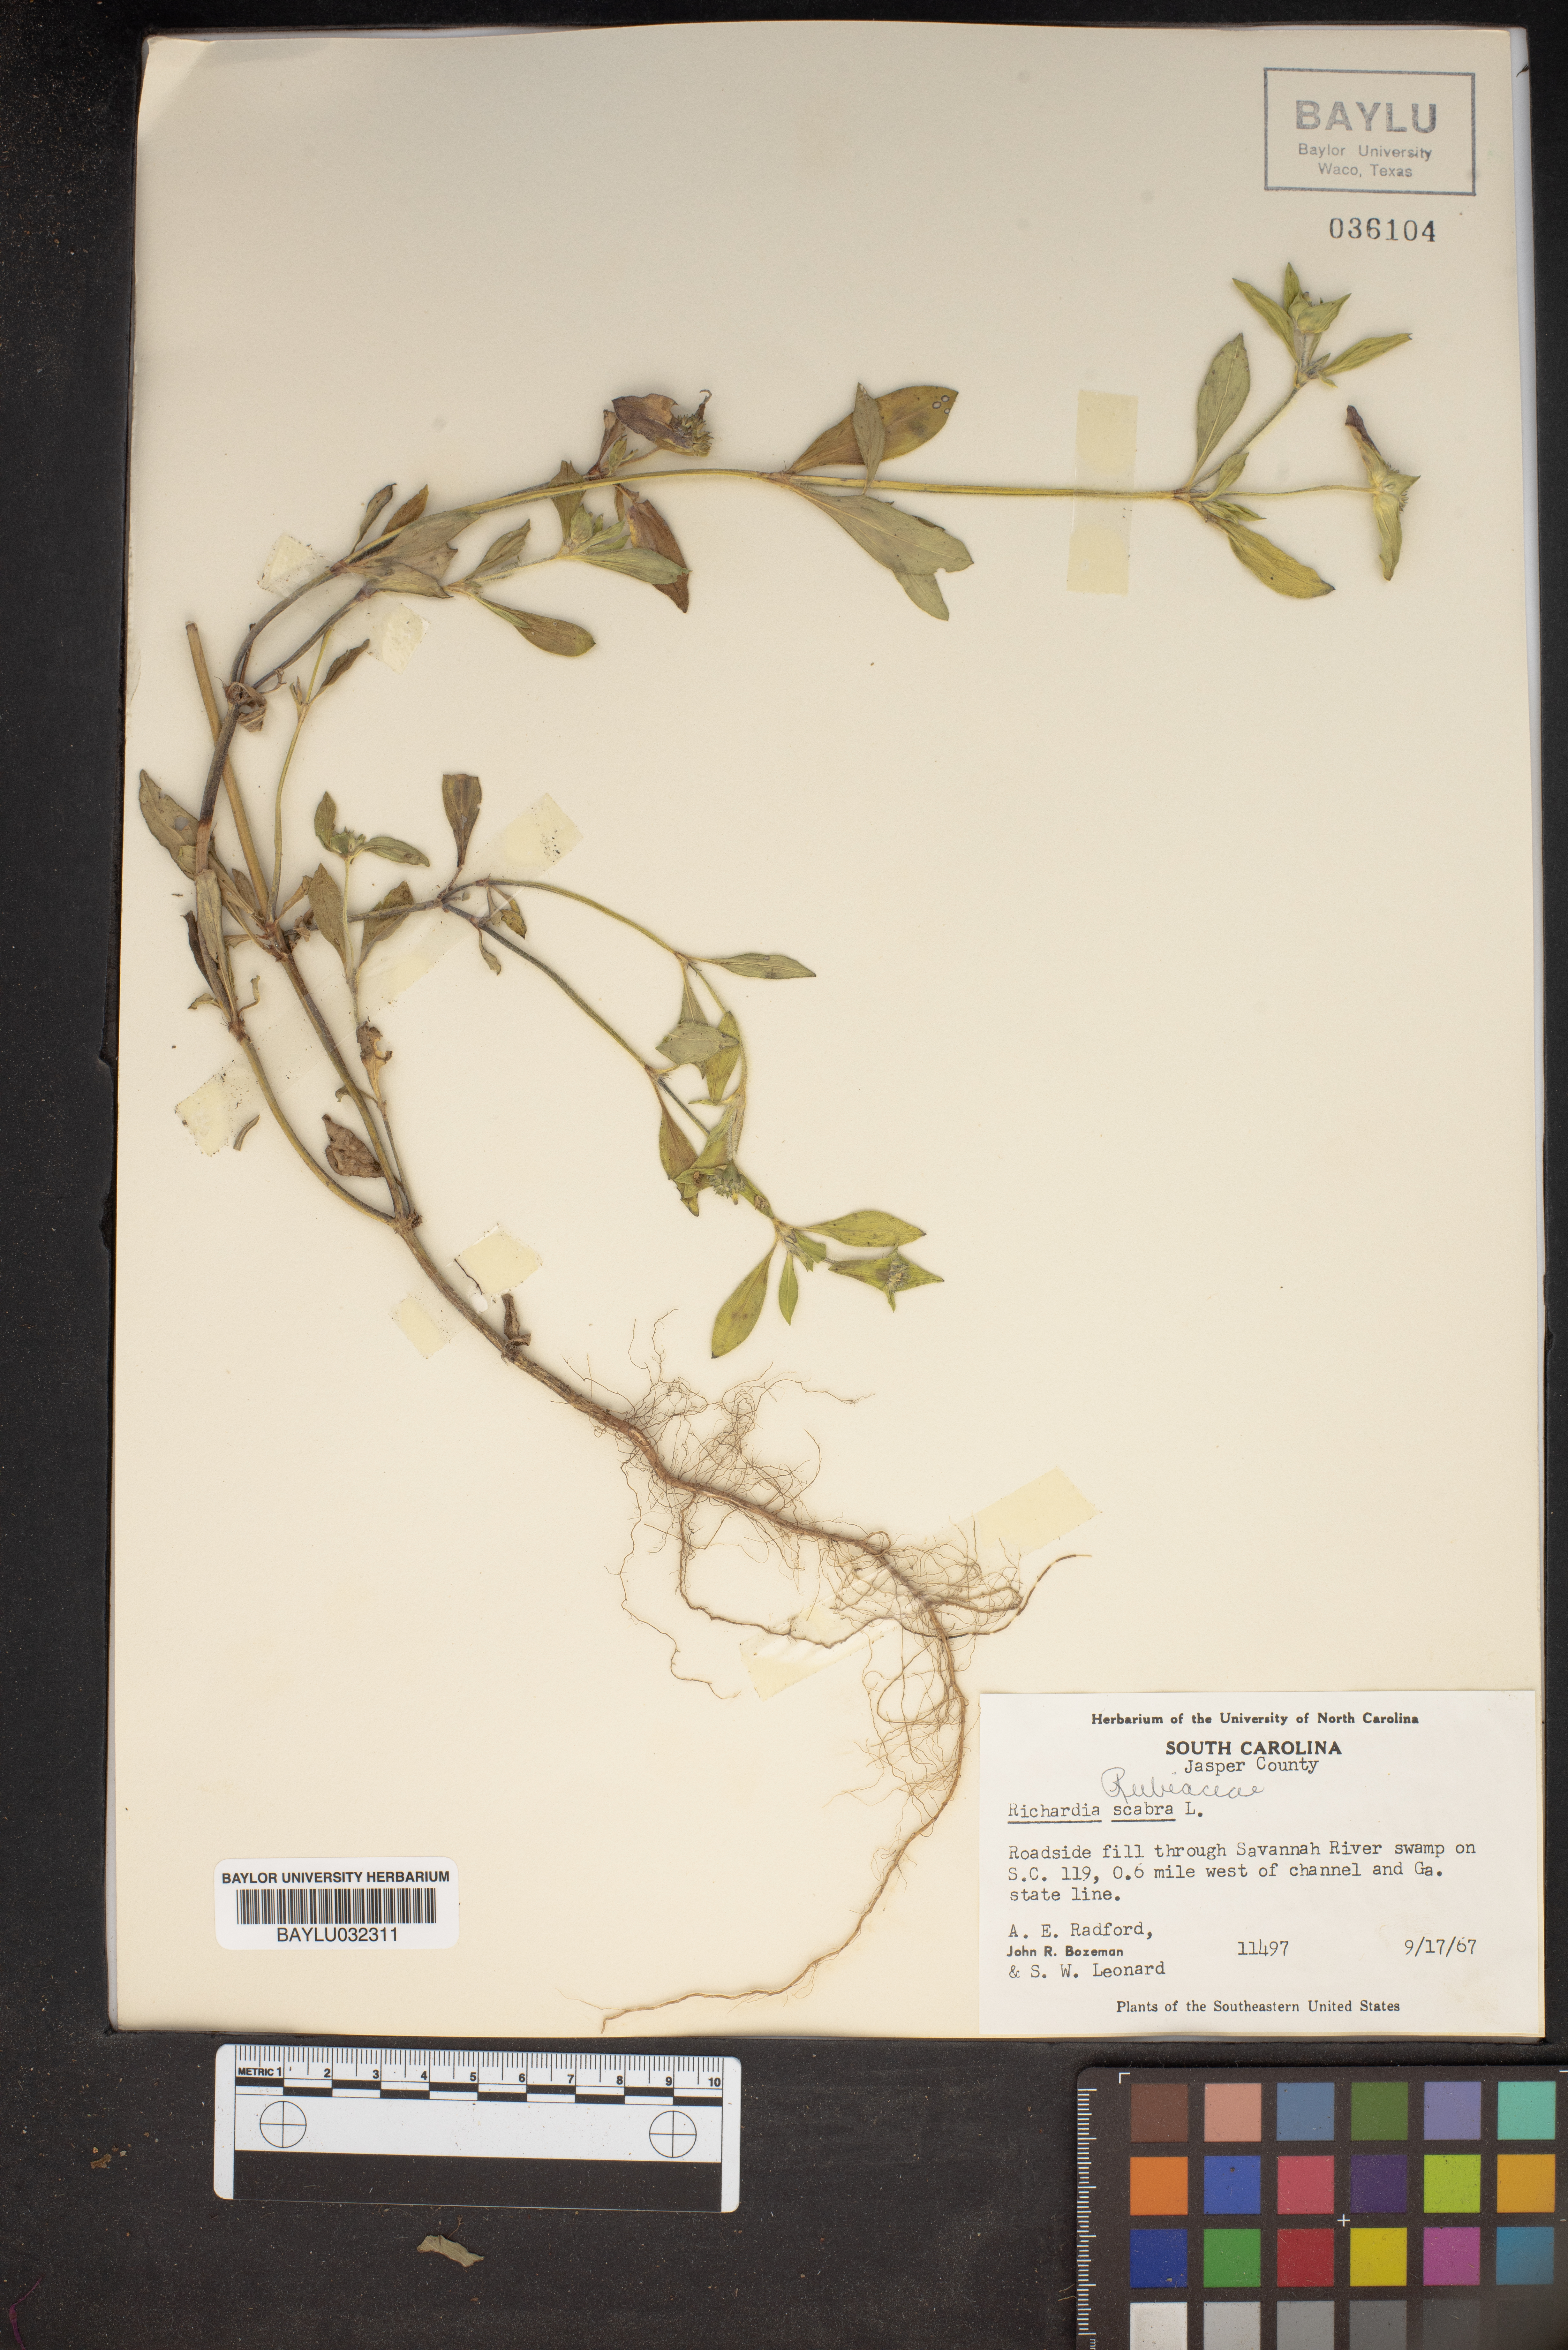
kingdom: Plantae
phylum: Tracheophyta
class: Magnoliopsida
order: Gentianales
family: Rubiaceae
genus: Richardia
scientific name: Richardia scabra
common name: Rough mexican clover
